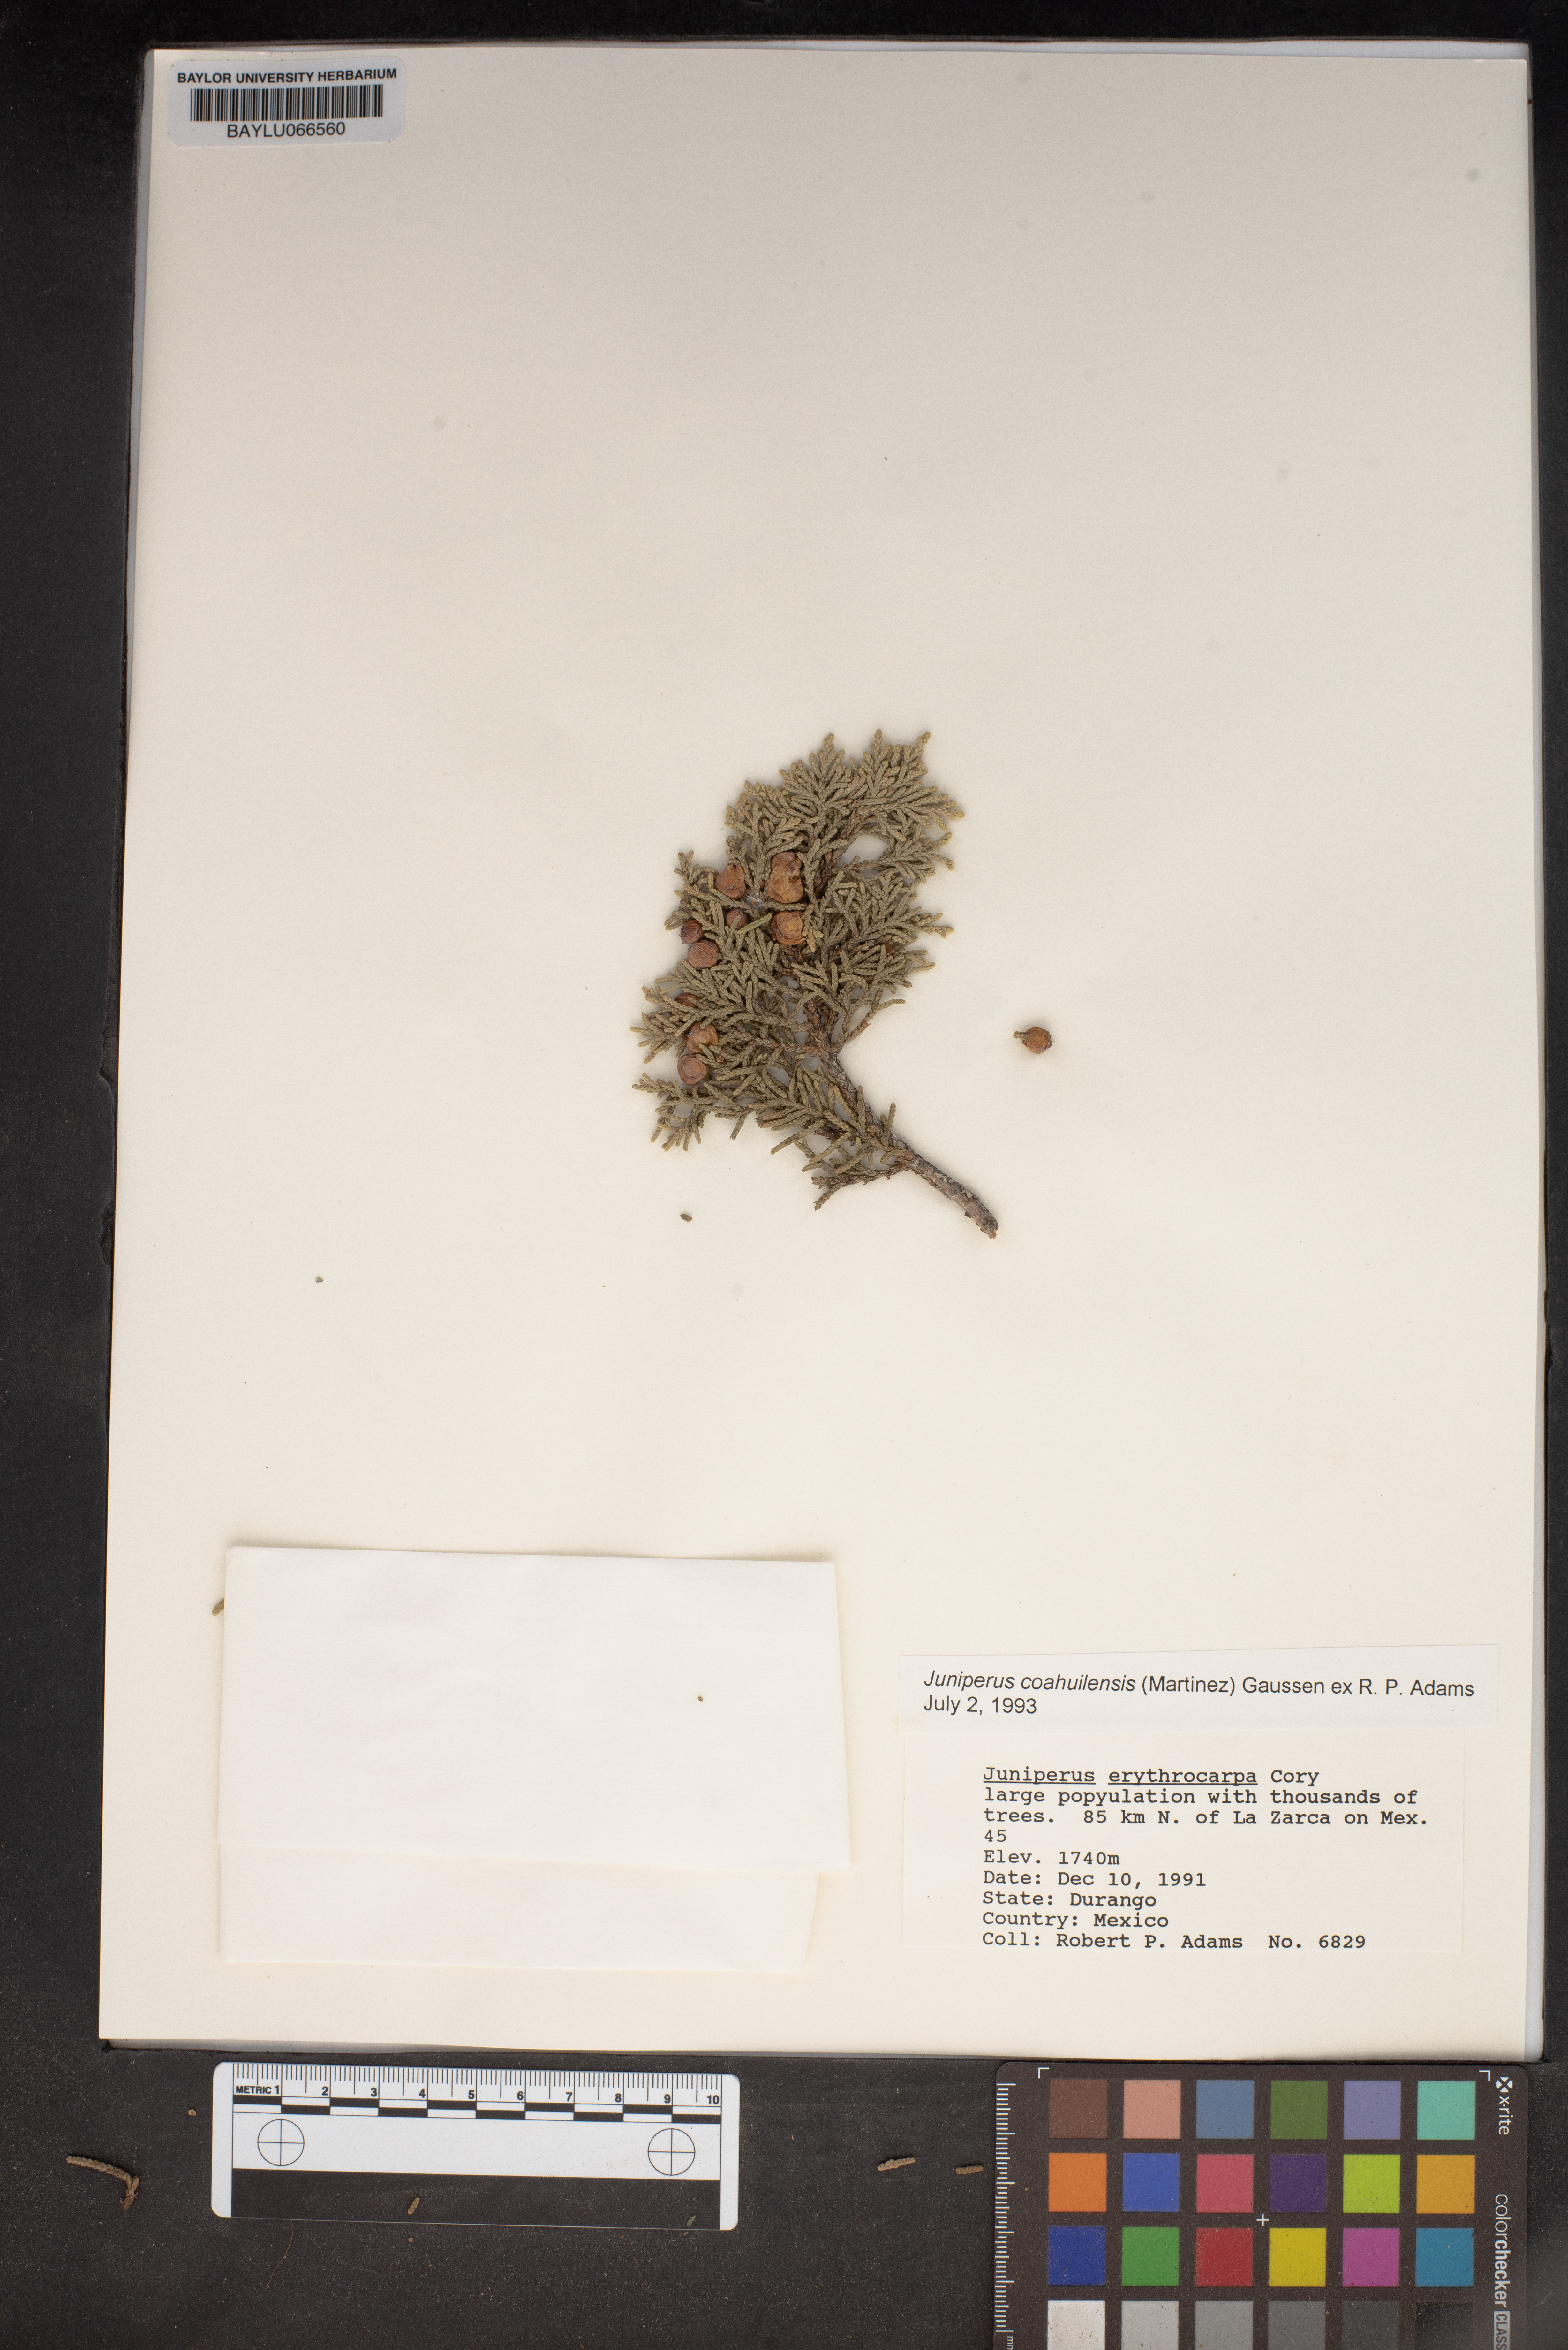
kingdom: Plantae
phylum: Tracheophyta
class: Pinopsida
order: Pinales
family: Cupressaceae
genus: Juniperus
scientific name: Juniperus coahuilensis
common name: Roseberry
